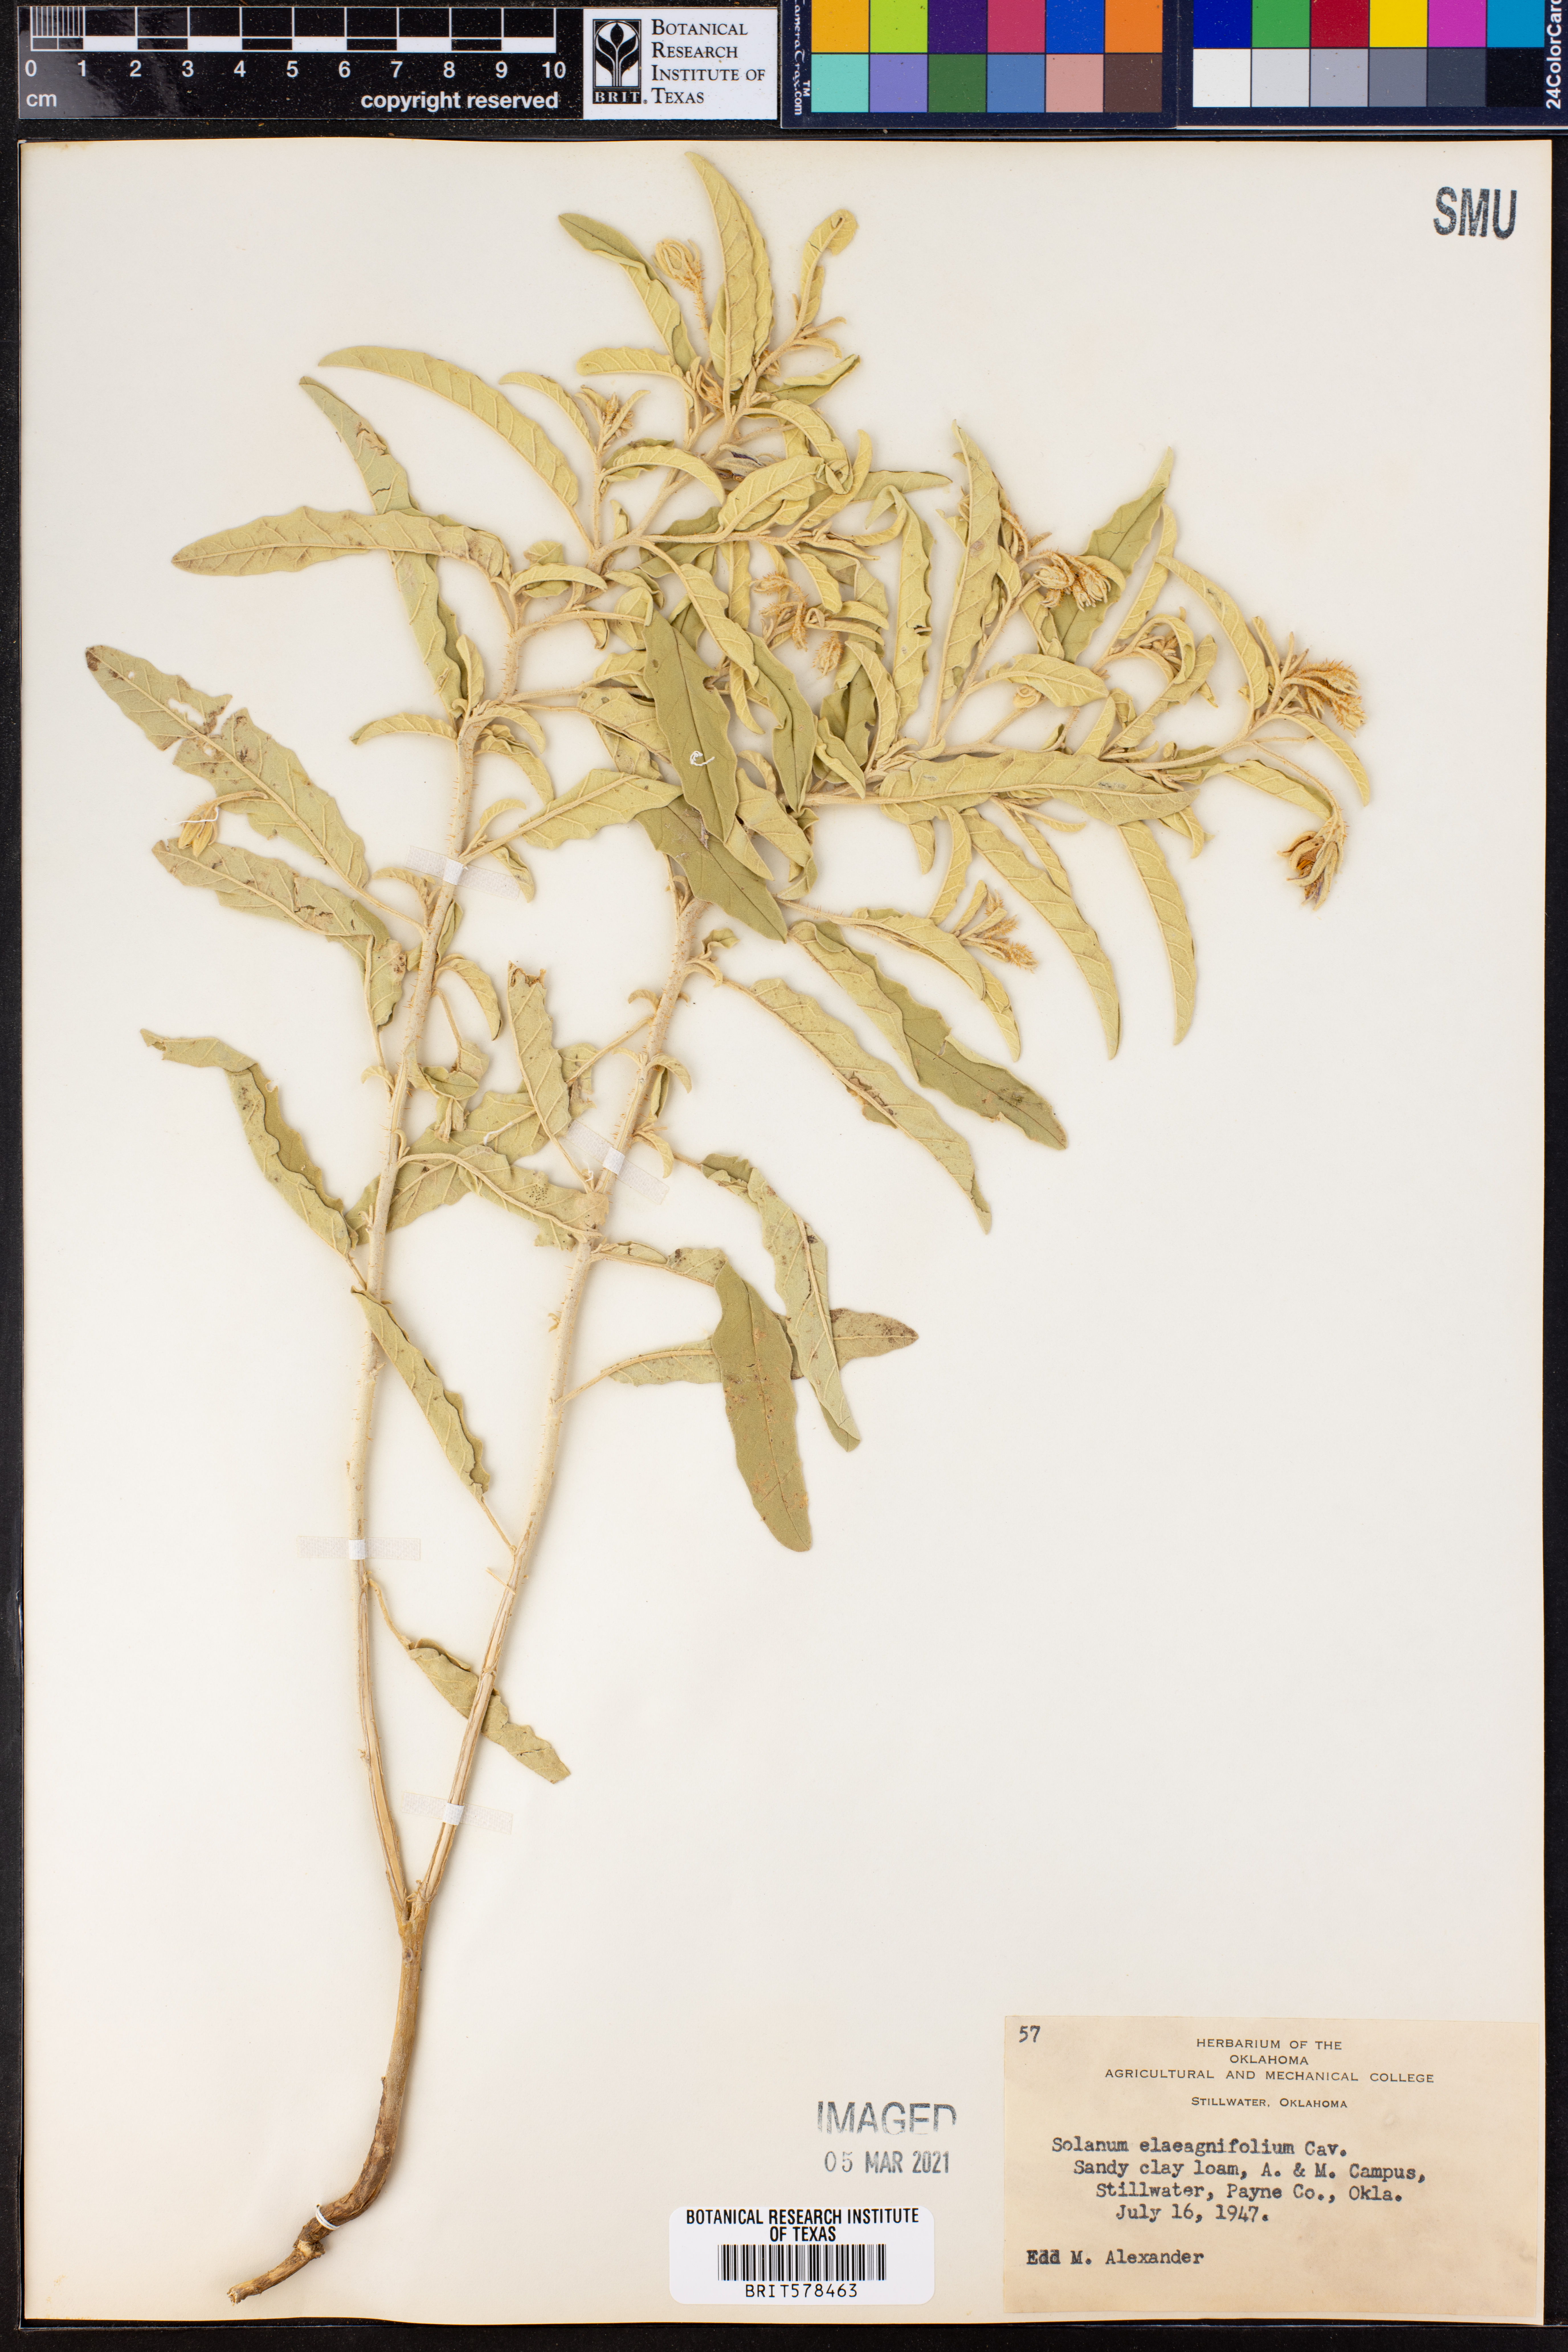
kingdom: Plantae
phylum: Tracheophyta
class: Magnoliopsida
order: Solanales
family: Solanaceae
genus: Solanum
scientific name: Solanum elaeagnifolium
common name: Silverleaf nightshade
